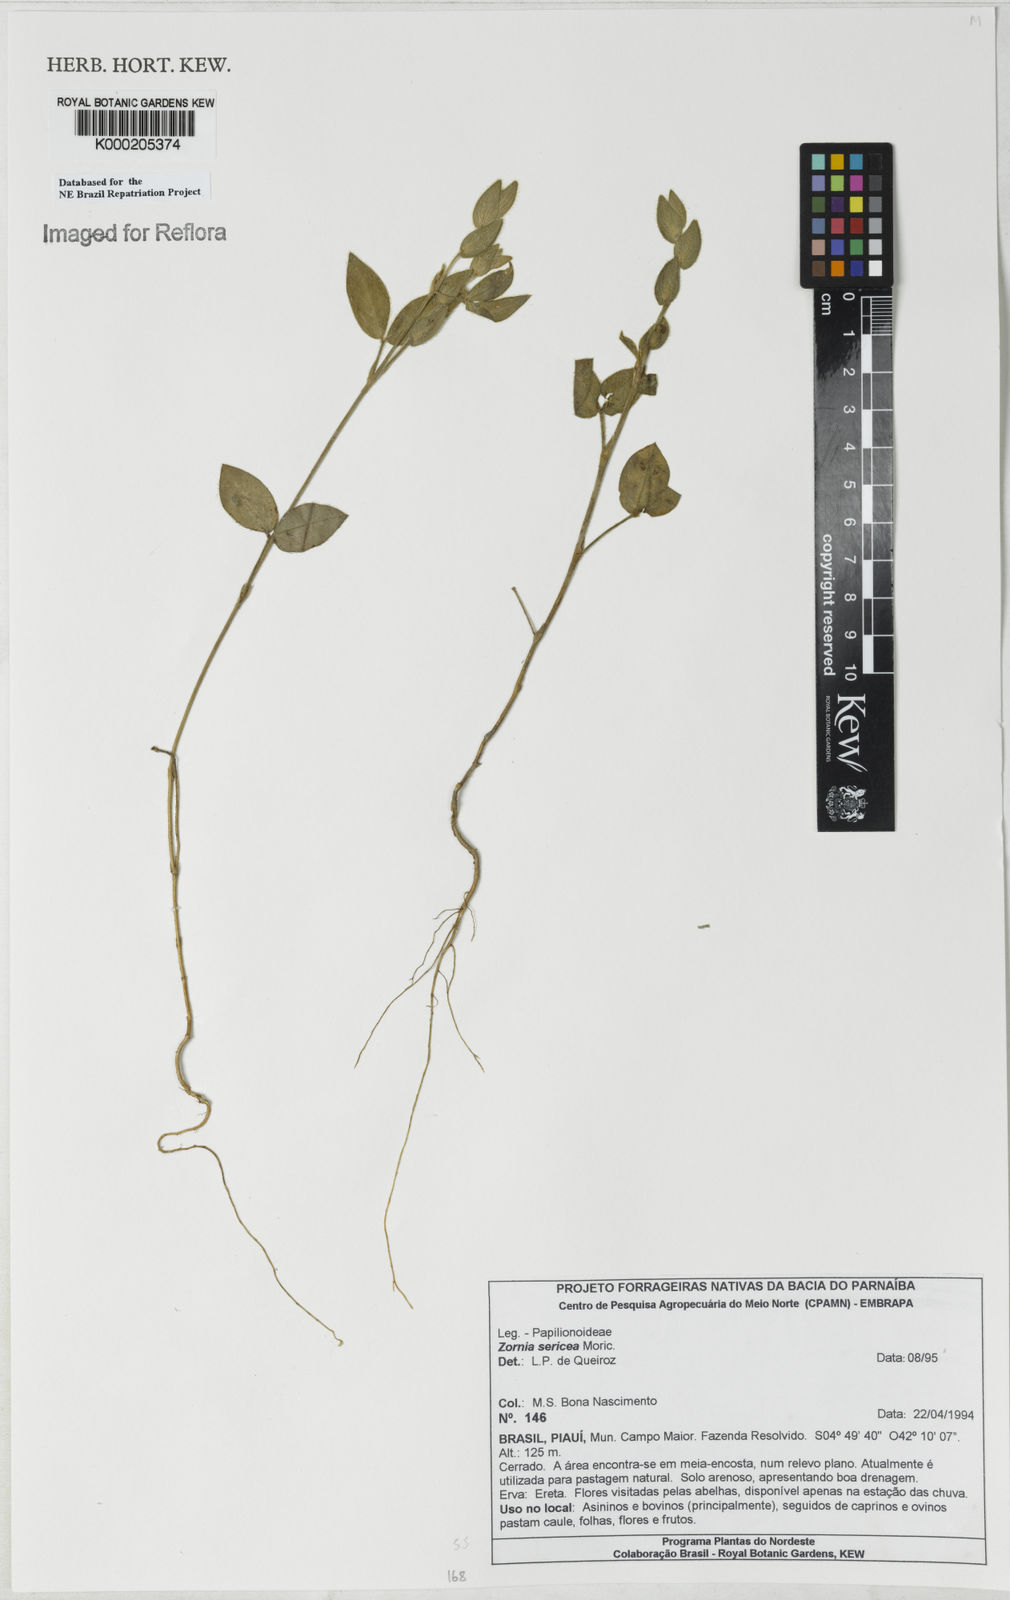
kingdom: Plantae
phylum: Tracheophyta
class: Magnoliopsida
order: Fabales
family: Fabaceae
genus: Zornia
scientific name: Zornia sericea
